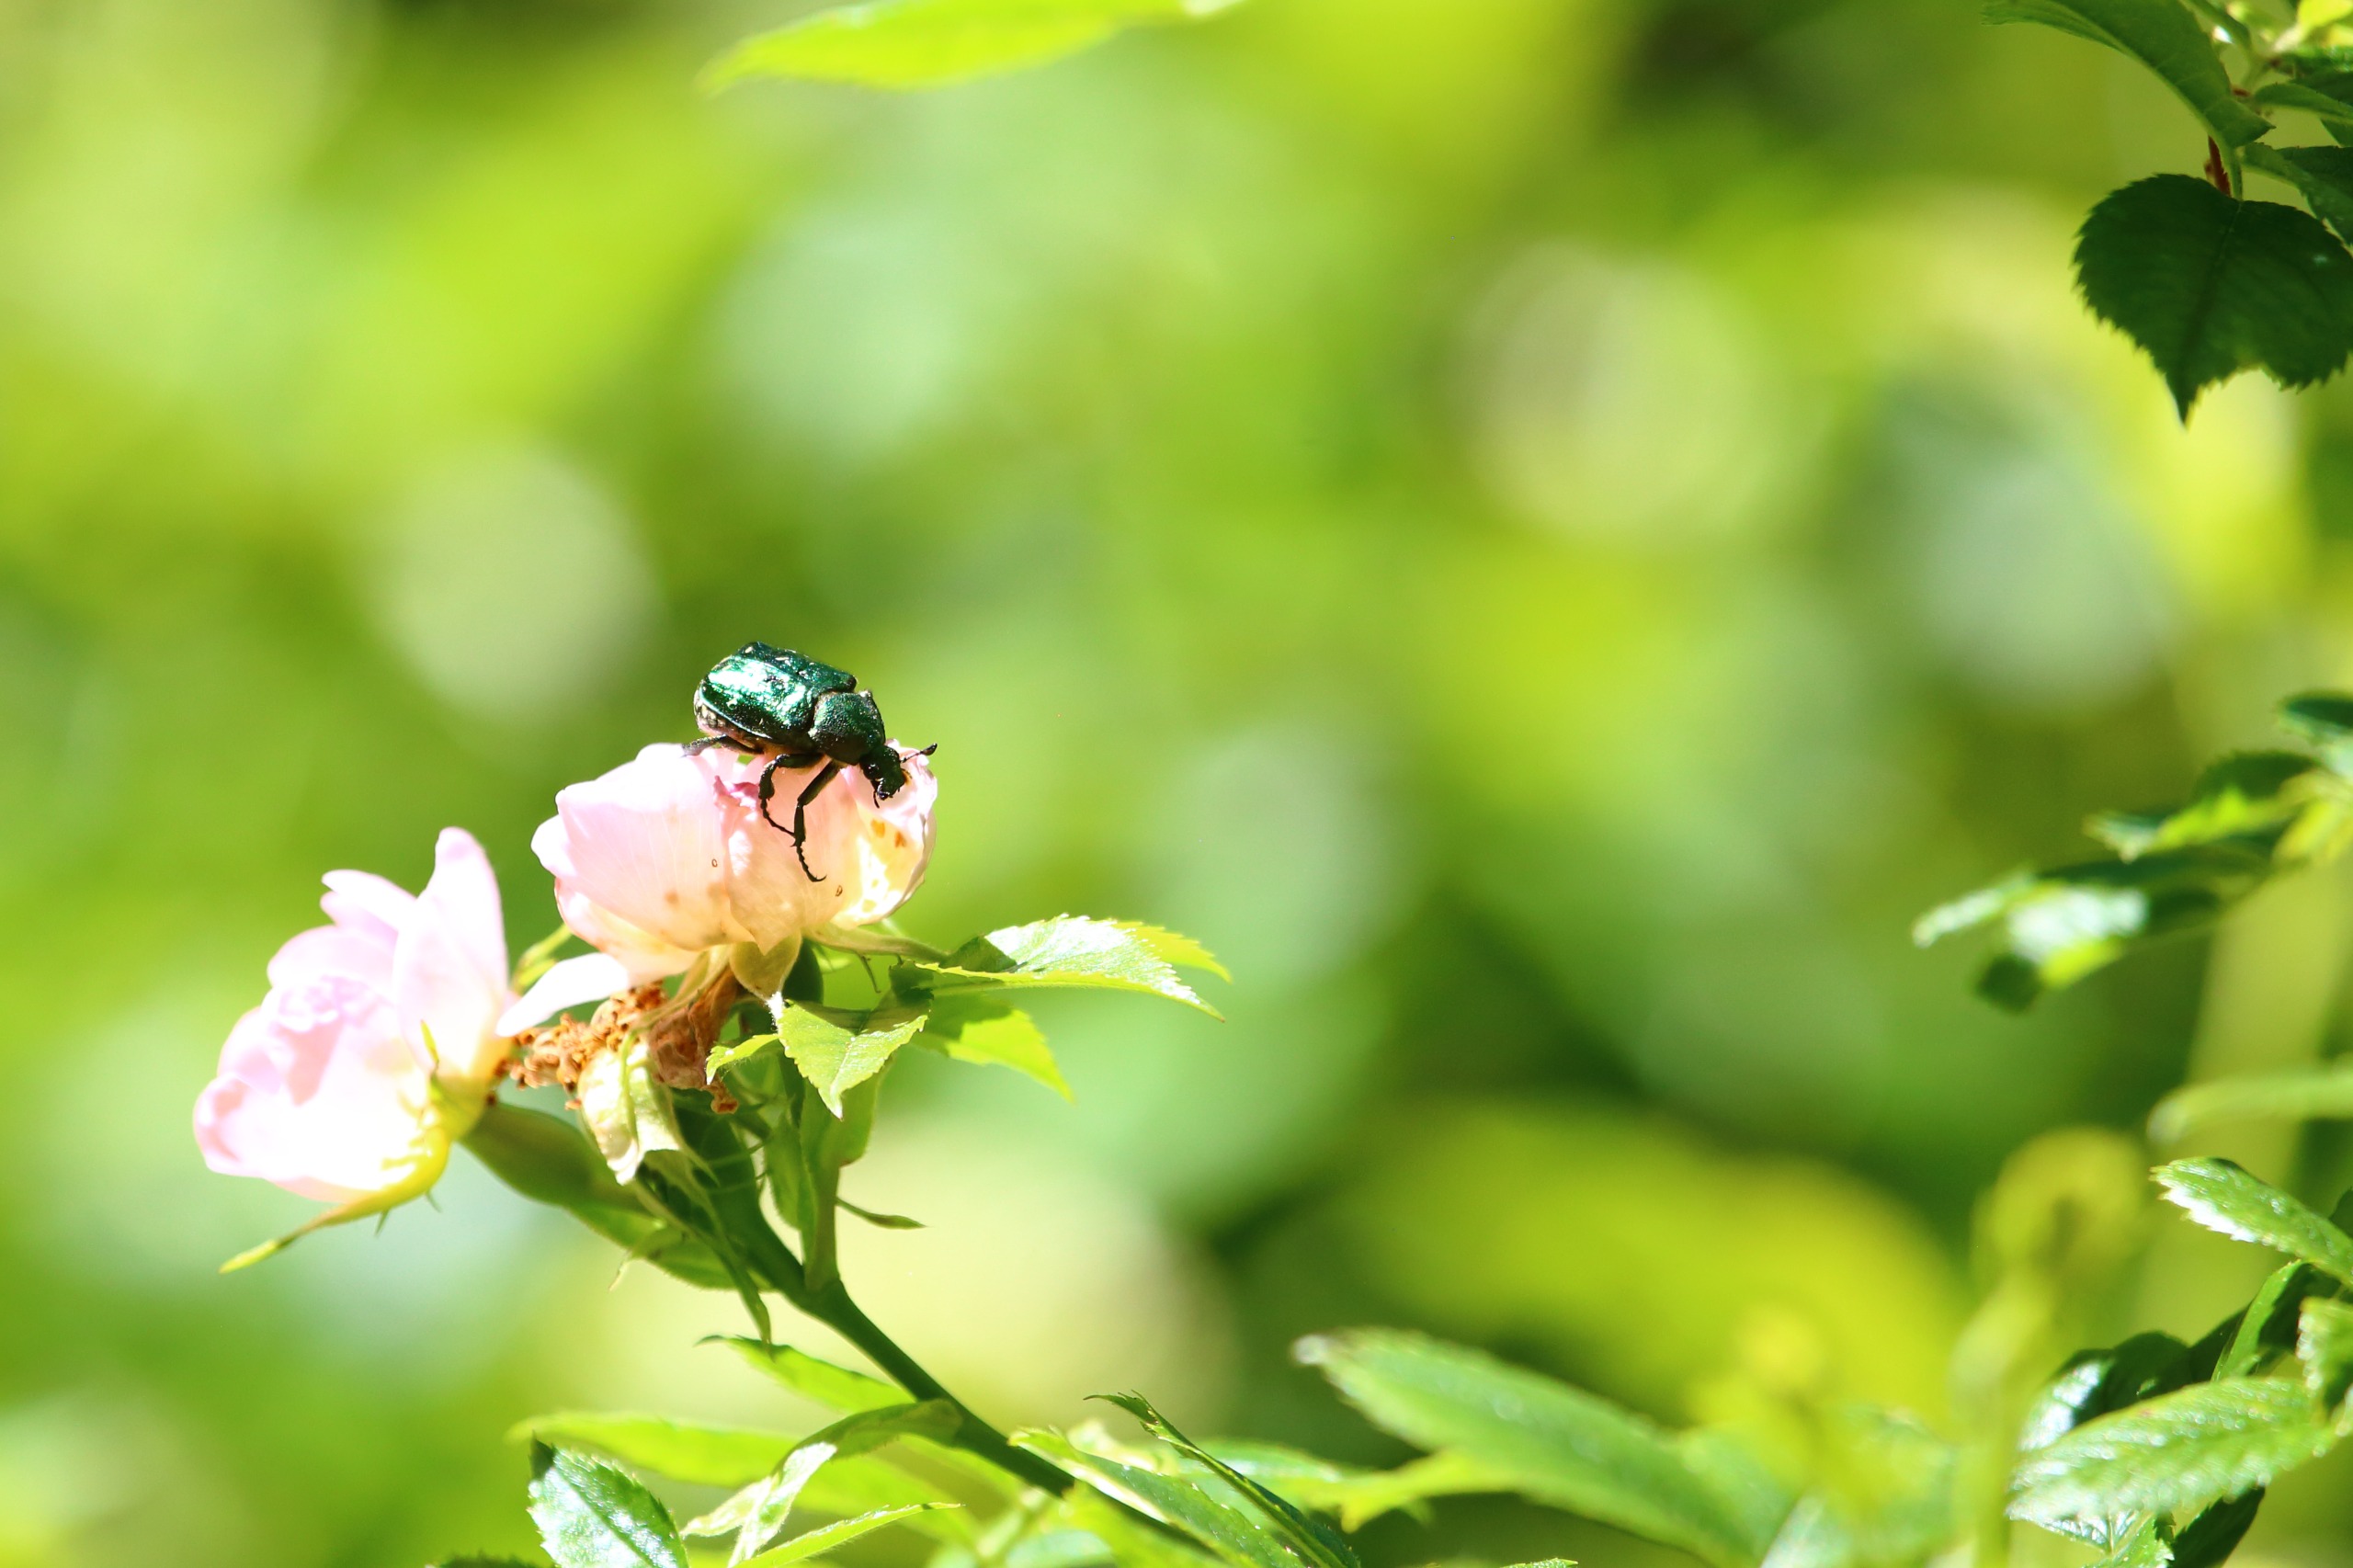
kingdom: Animalia
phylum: Arthropoda
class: Insecta
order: Coleoptera
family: Scarabaeidae
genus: Gnorimus
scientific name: Gnorimus nobilis
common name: Grøn pragttorbist
